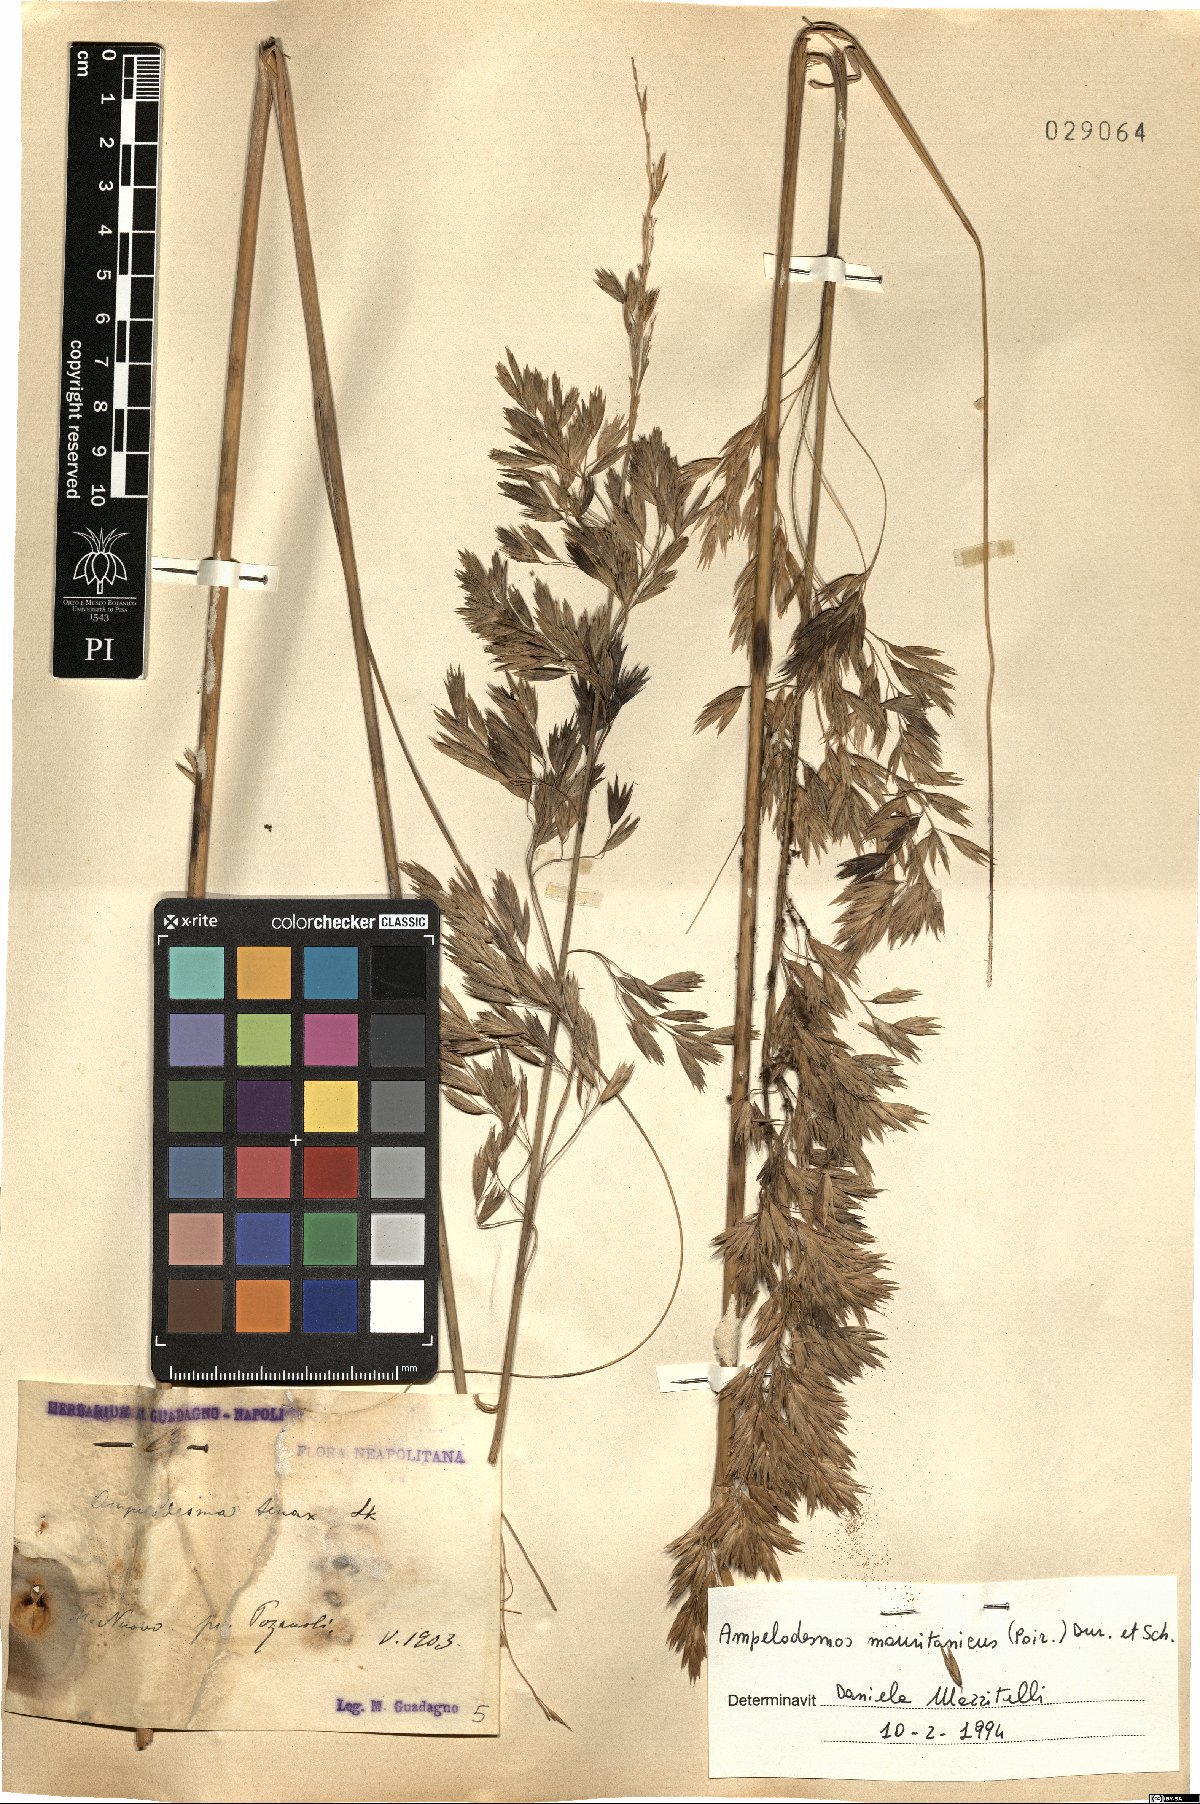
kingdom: Plantae
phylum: Tracheophyta
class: Liliopsida
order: Poales
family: Poaceae
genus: Ampelodesmos
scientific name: Ampelodesmos mauritanicus
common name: Mauritanian grass
